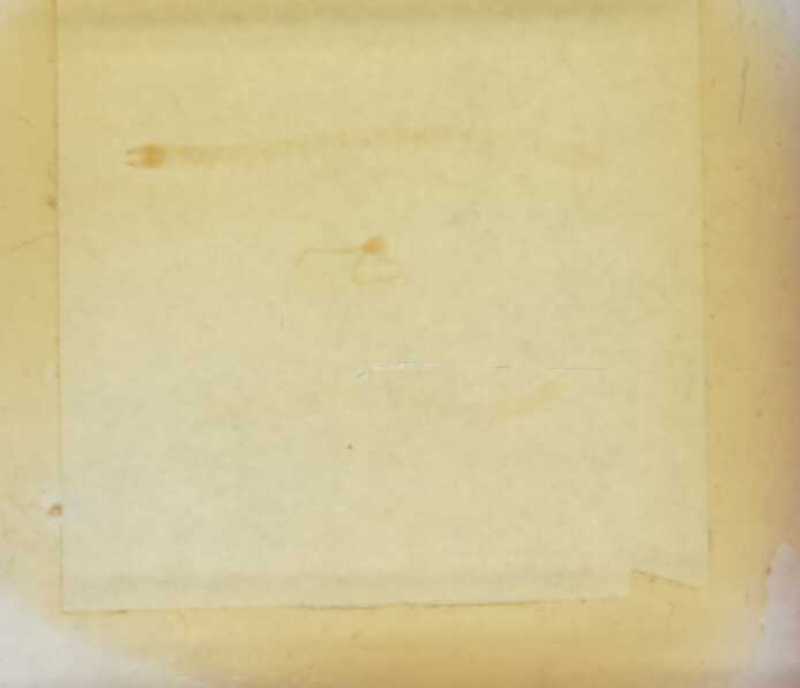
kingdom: Animalia
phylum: Arthropoda
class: Chilopoda
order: Geophilomorpha
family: Geophilidae
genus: Geophilus
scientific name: Geophilus frigidanus
